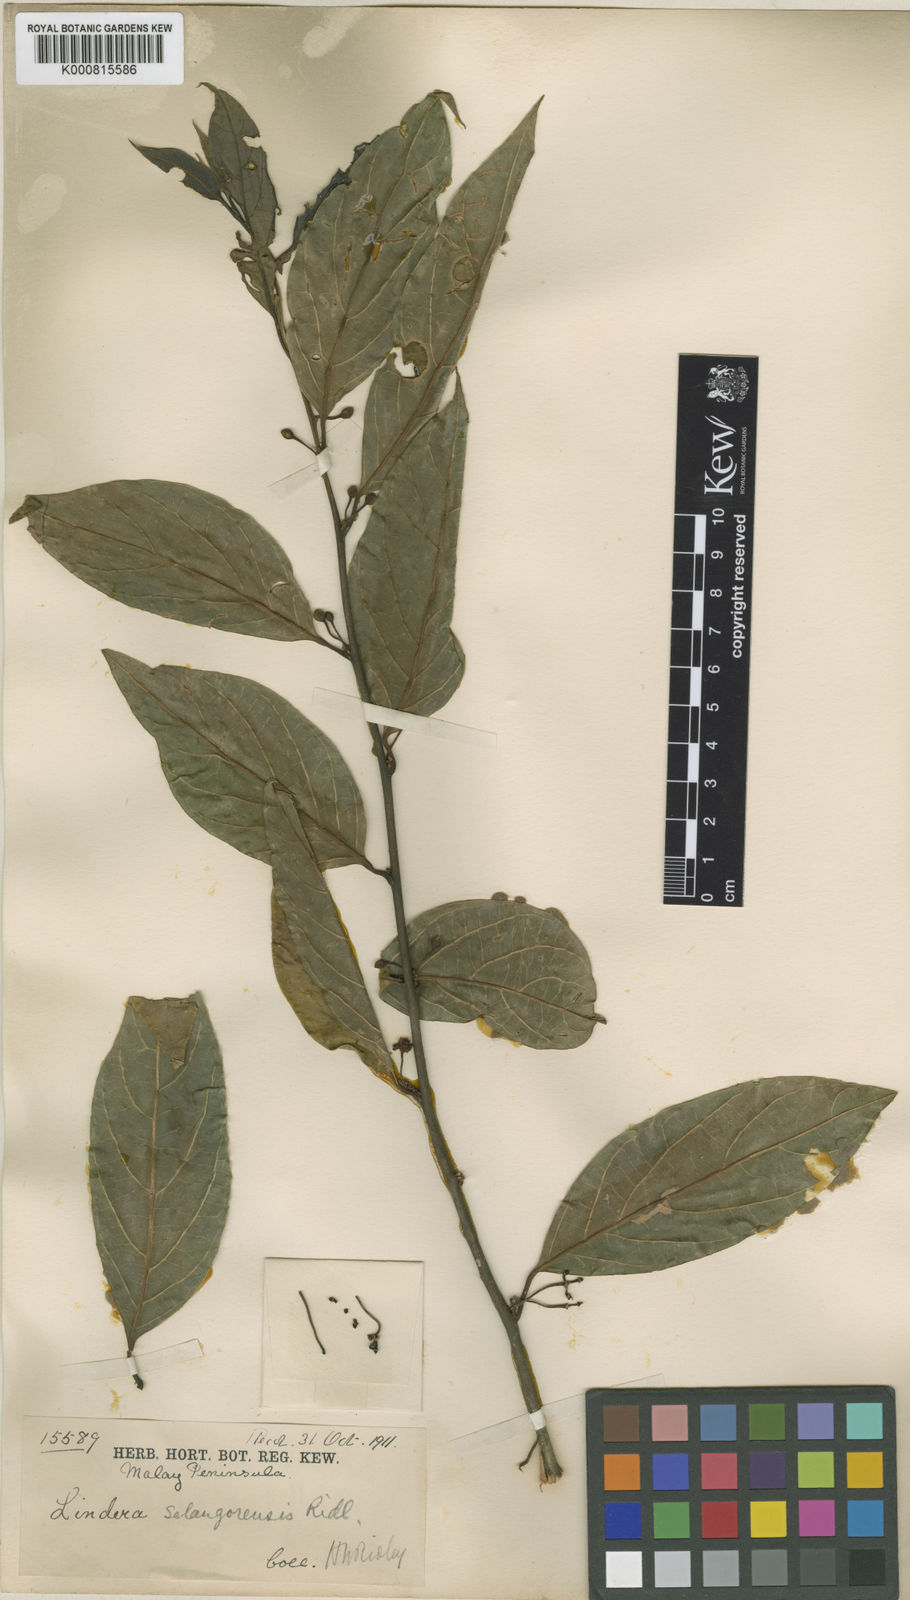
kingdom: Plantae
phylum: Tracheophyta
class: Magnoliopsida
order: Laurales
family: Lauraceae
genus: Lindera
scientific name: Lindera selangorensis
